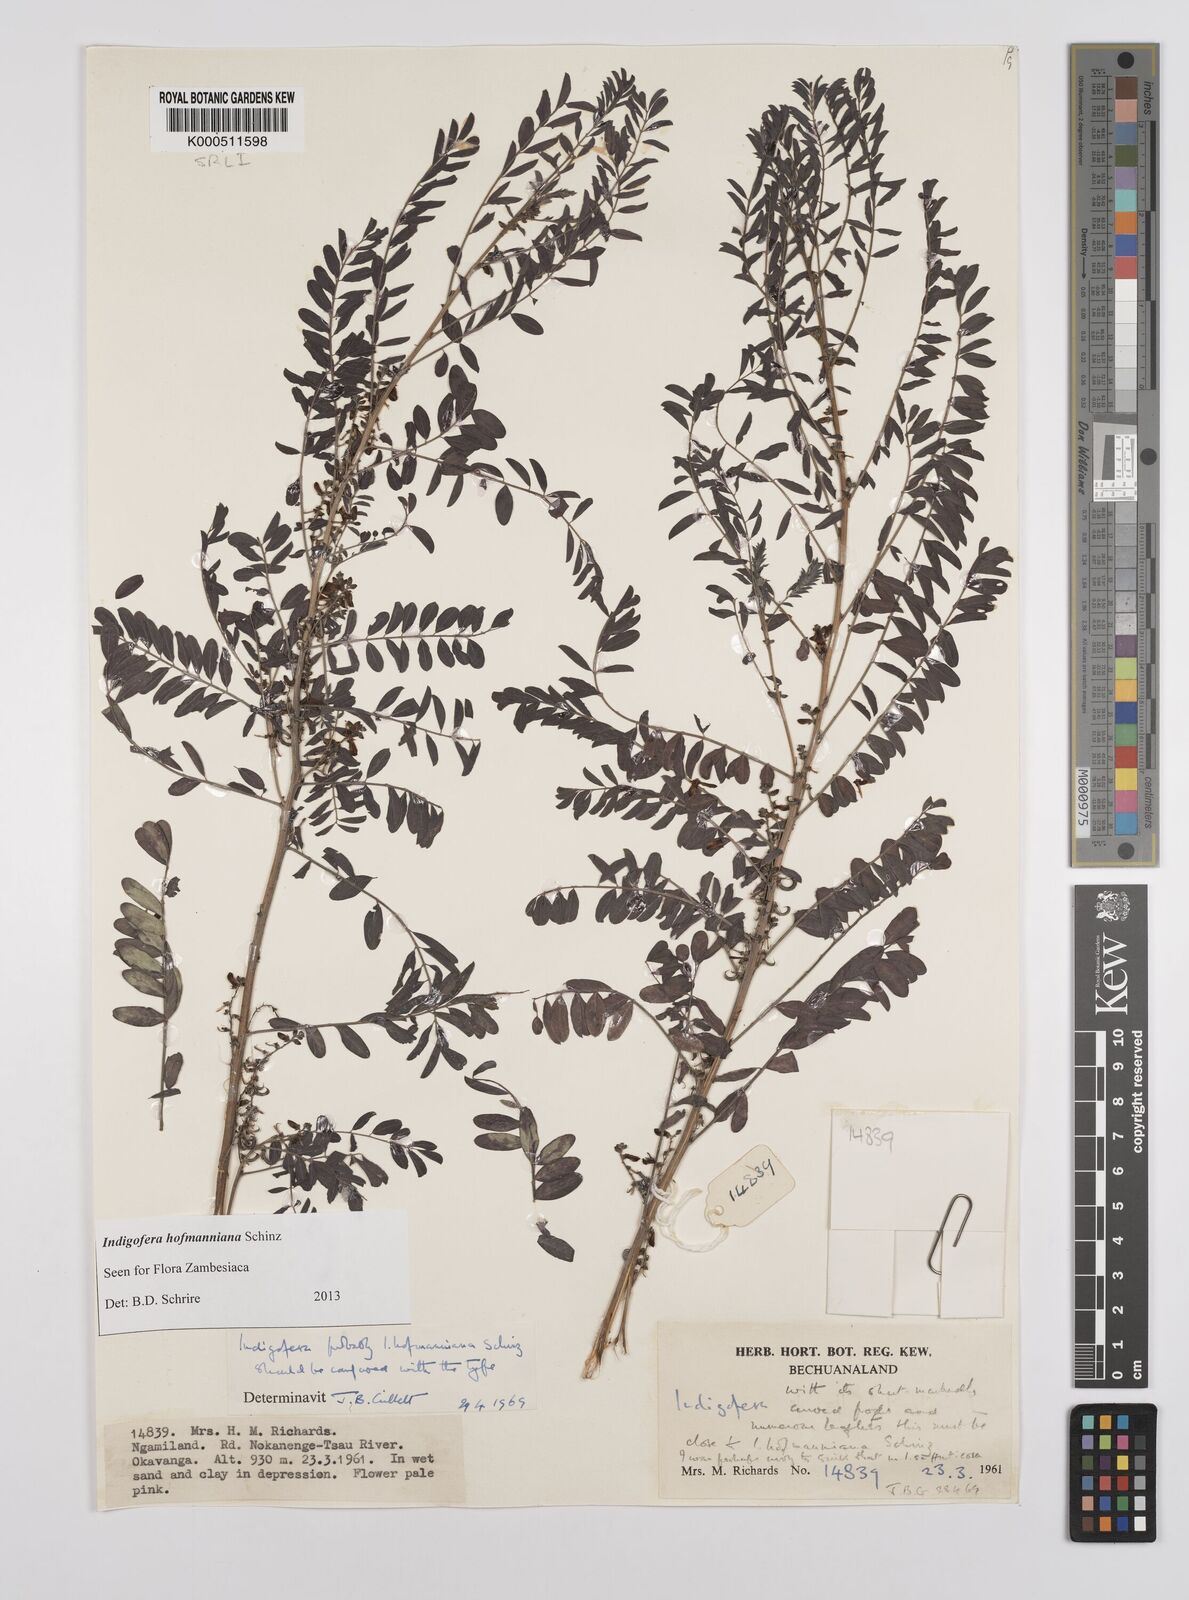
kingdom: Plantae
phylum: Tracheophyta
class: Magnoliopsida
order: Fabales
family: Fabaceae
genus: Indigofera
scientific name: Indigofera hofmanniana
